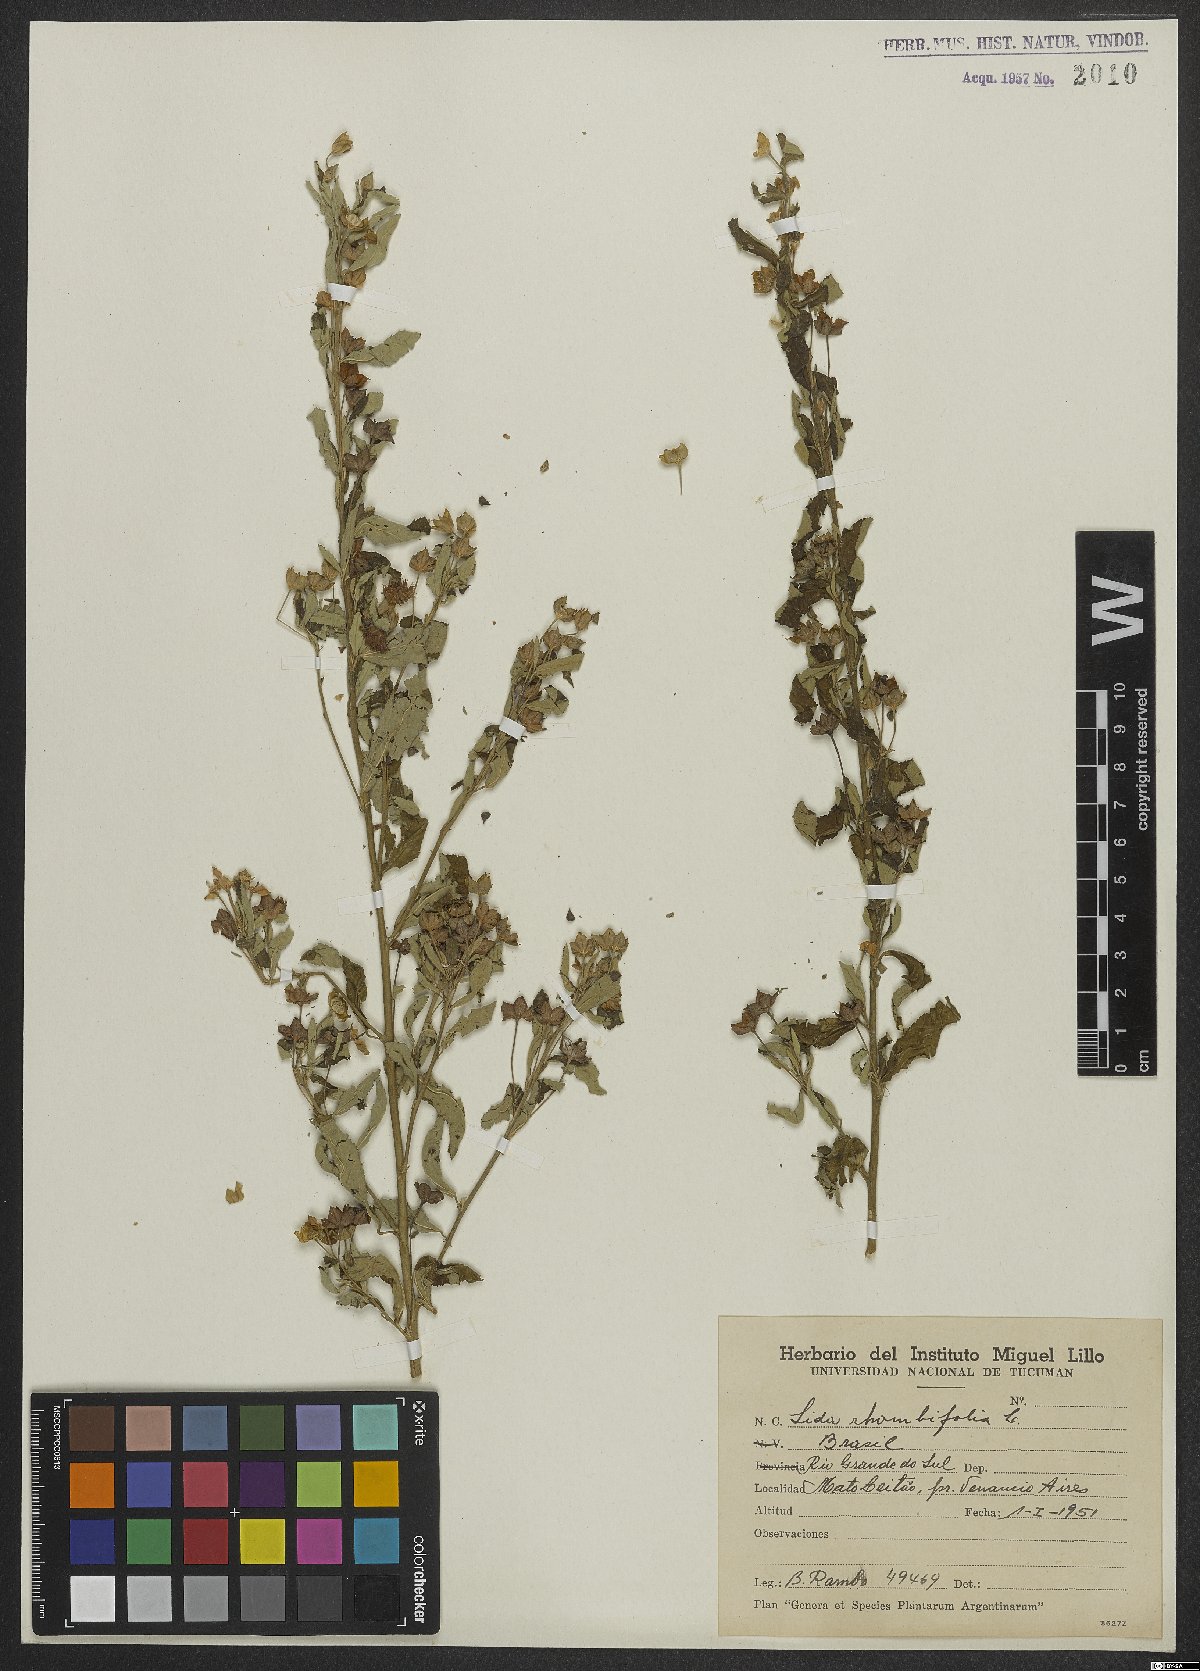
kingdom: Plantae
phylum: Tracheophyta
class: Magnoliopsida
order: Malvales
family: Malvaceae
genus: Sida
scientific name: Sida rhombifolia
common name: Queensland-hemp
